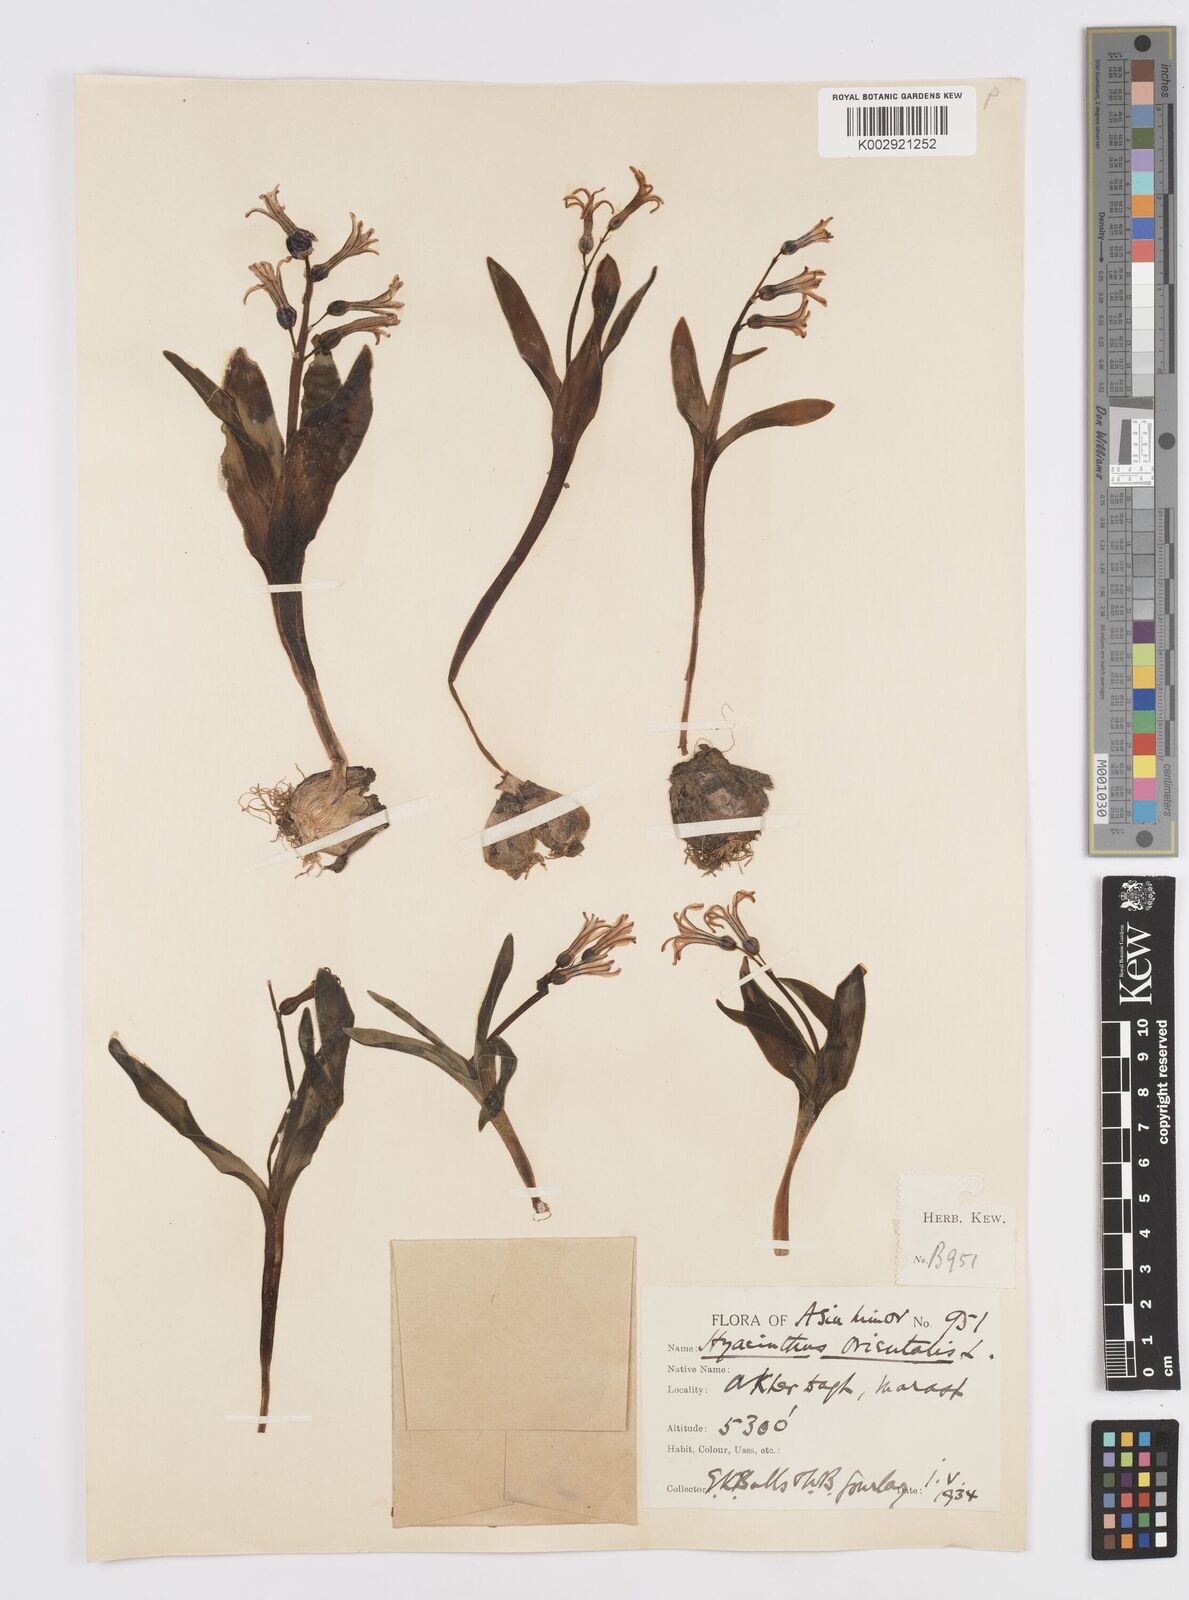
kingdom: Plantae
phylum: Tracheophyta
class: Liliopsida
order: Asparagales
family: Asparagaceae
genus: Hyacinthus
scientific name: Hyacinthus orientalis
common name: Hyacinth
